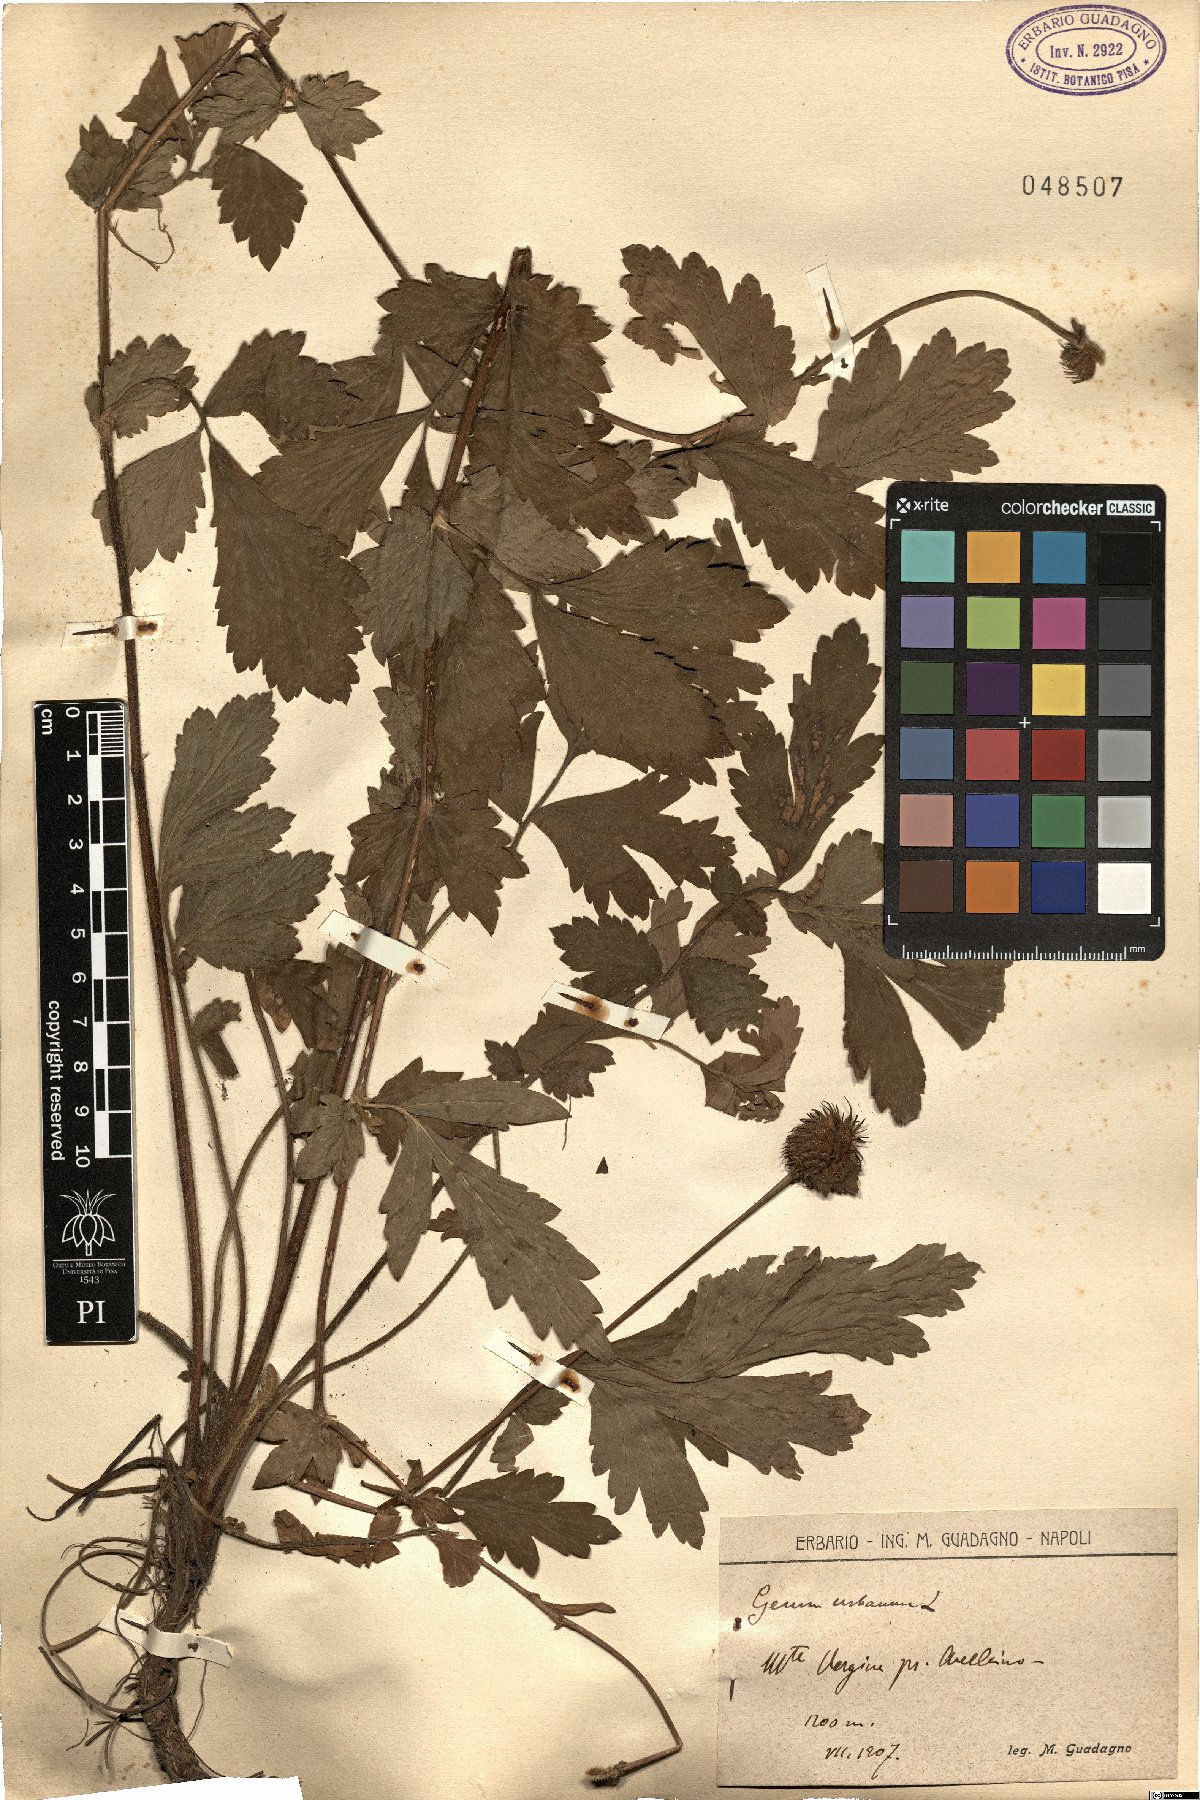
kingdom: Plantae
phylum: Tracheophyta
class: Magnoliopsida
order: Rosales
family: Rosaceae
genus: Geum
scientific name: Geum urbanum
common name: Wood avens
